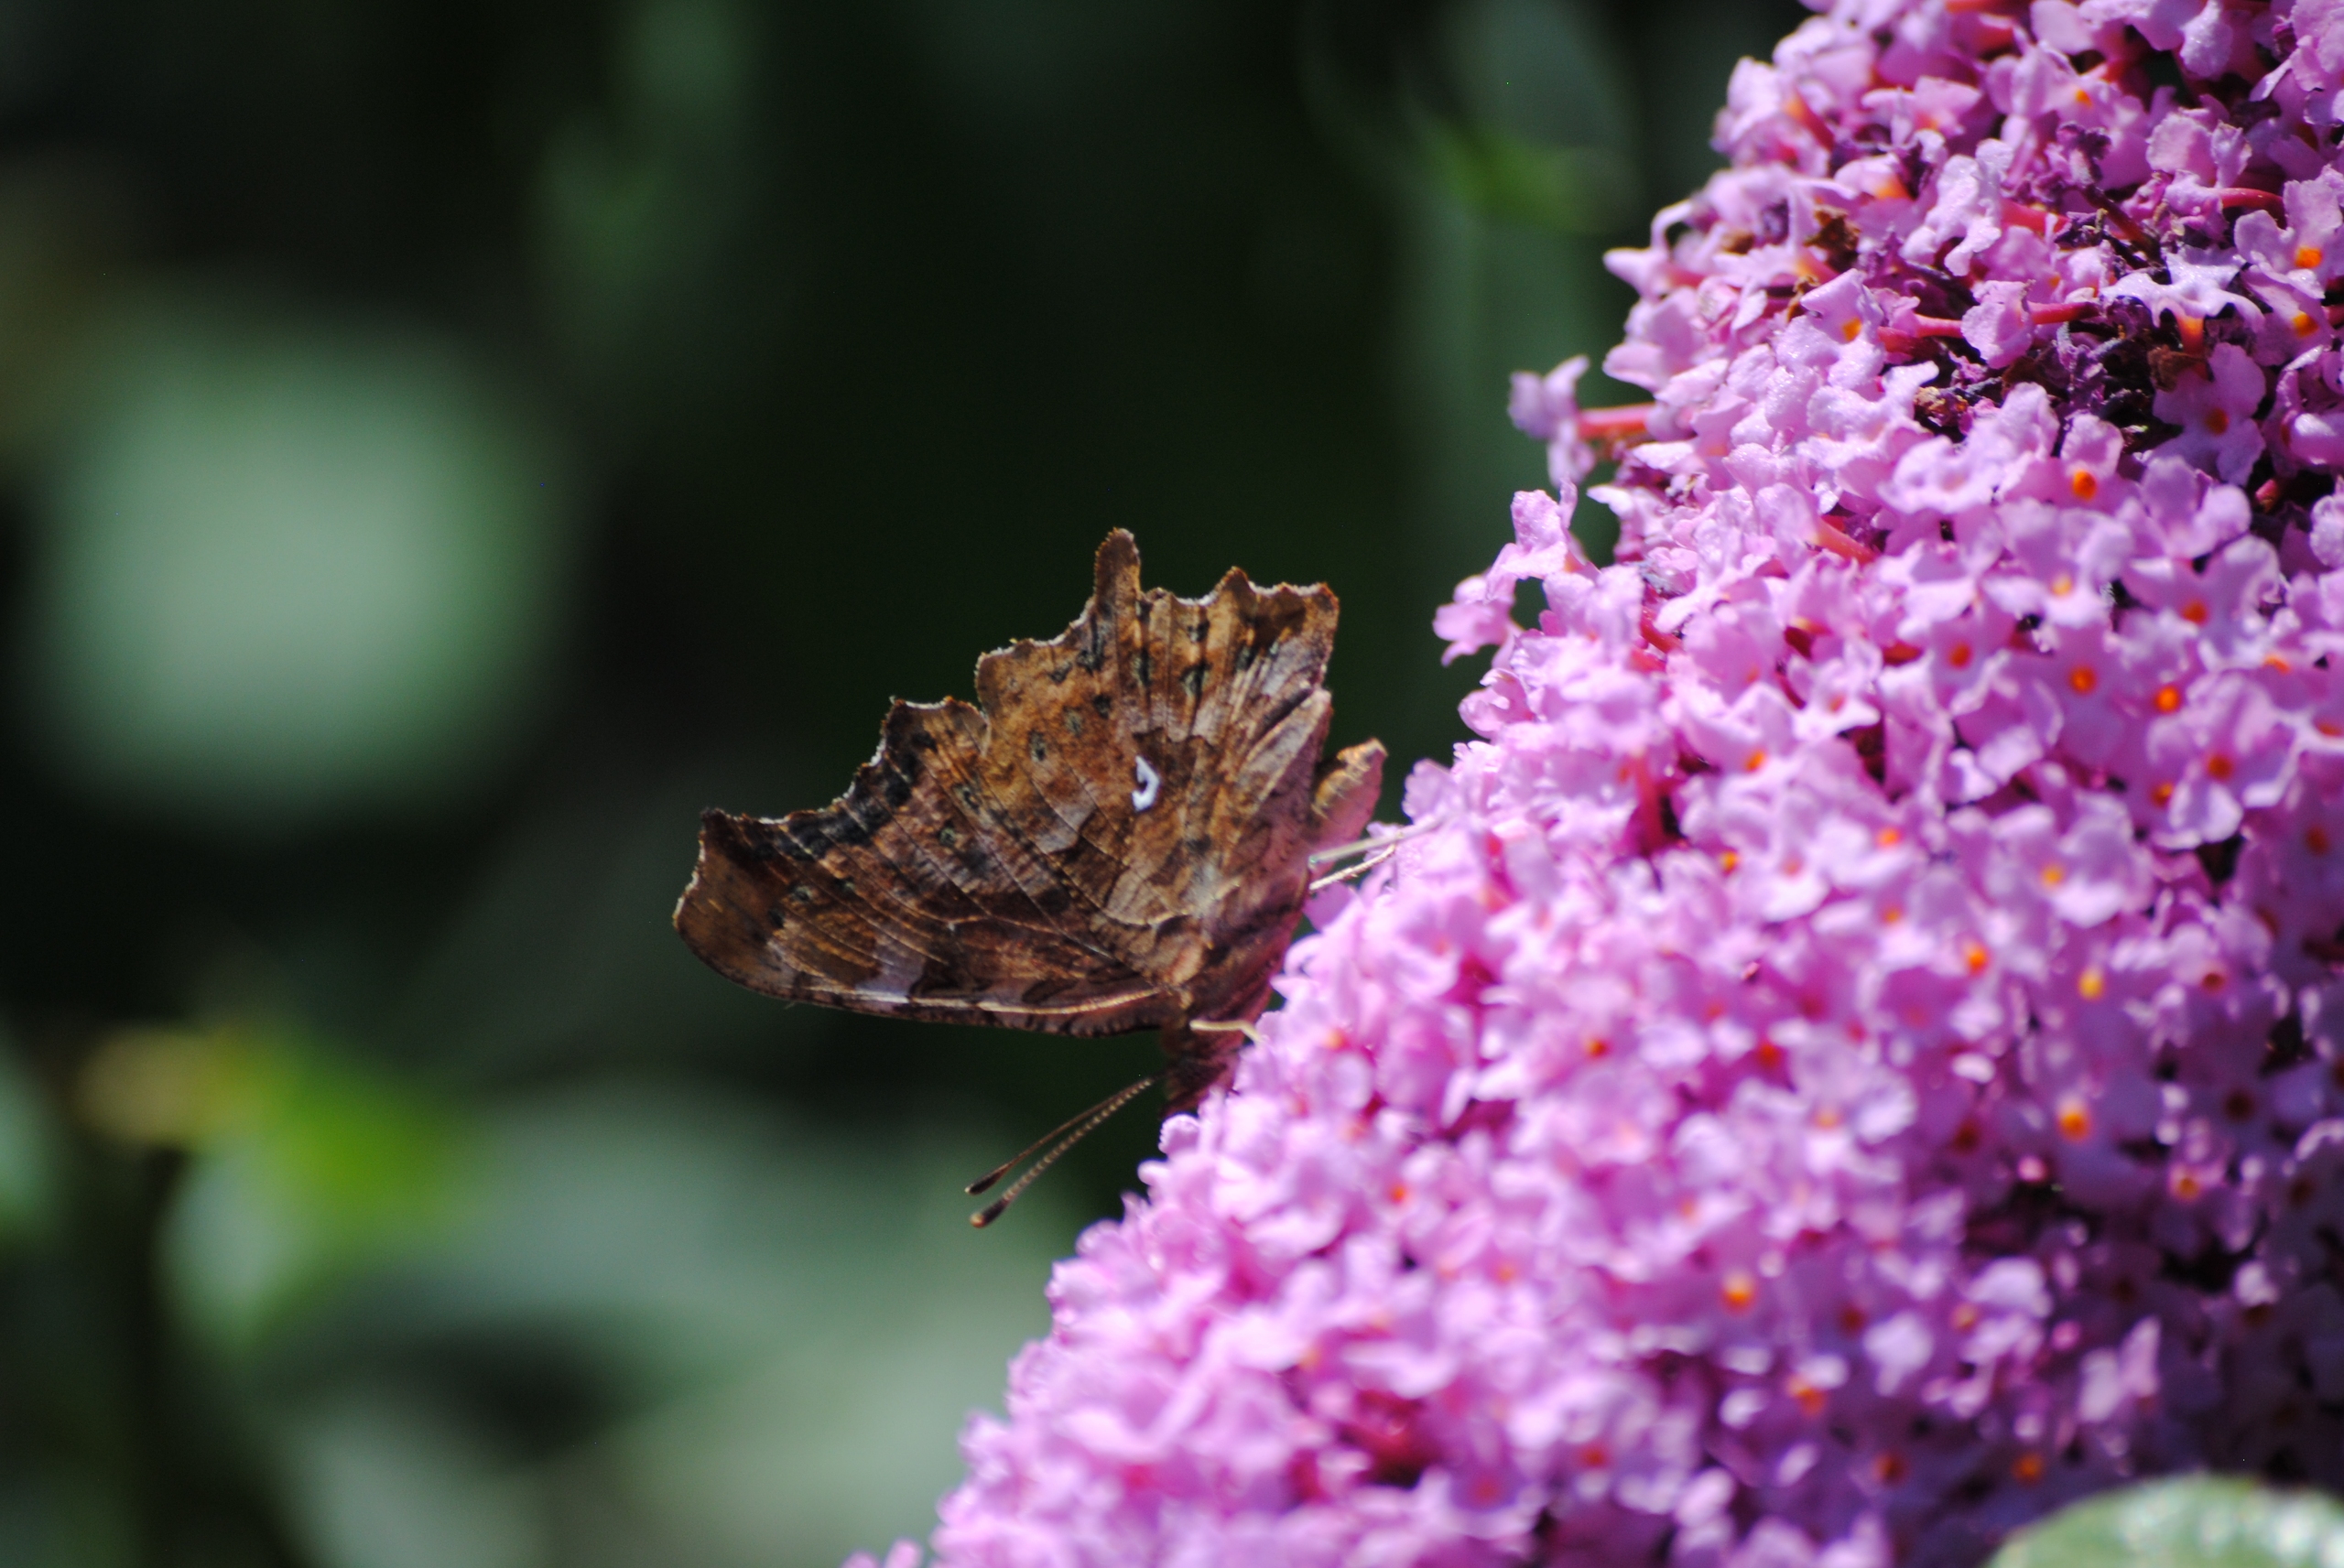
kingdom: Animalia
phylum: Arthropoda
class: Insecta
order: Lepidoptera
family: Nymphalidae
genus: Polygonia
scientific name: Polygonia c-album
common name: Det hvide C
